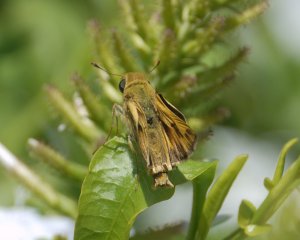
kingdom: Animalia
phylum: Arthropoda
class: Insecta
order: Lepidoptera
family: Hesperiidae
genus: Hylephila
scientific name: Hylephila phyleus
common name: Fiery Skipper
